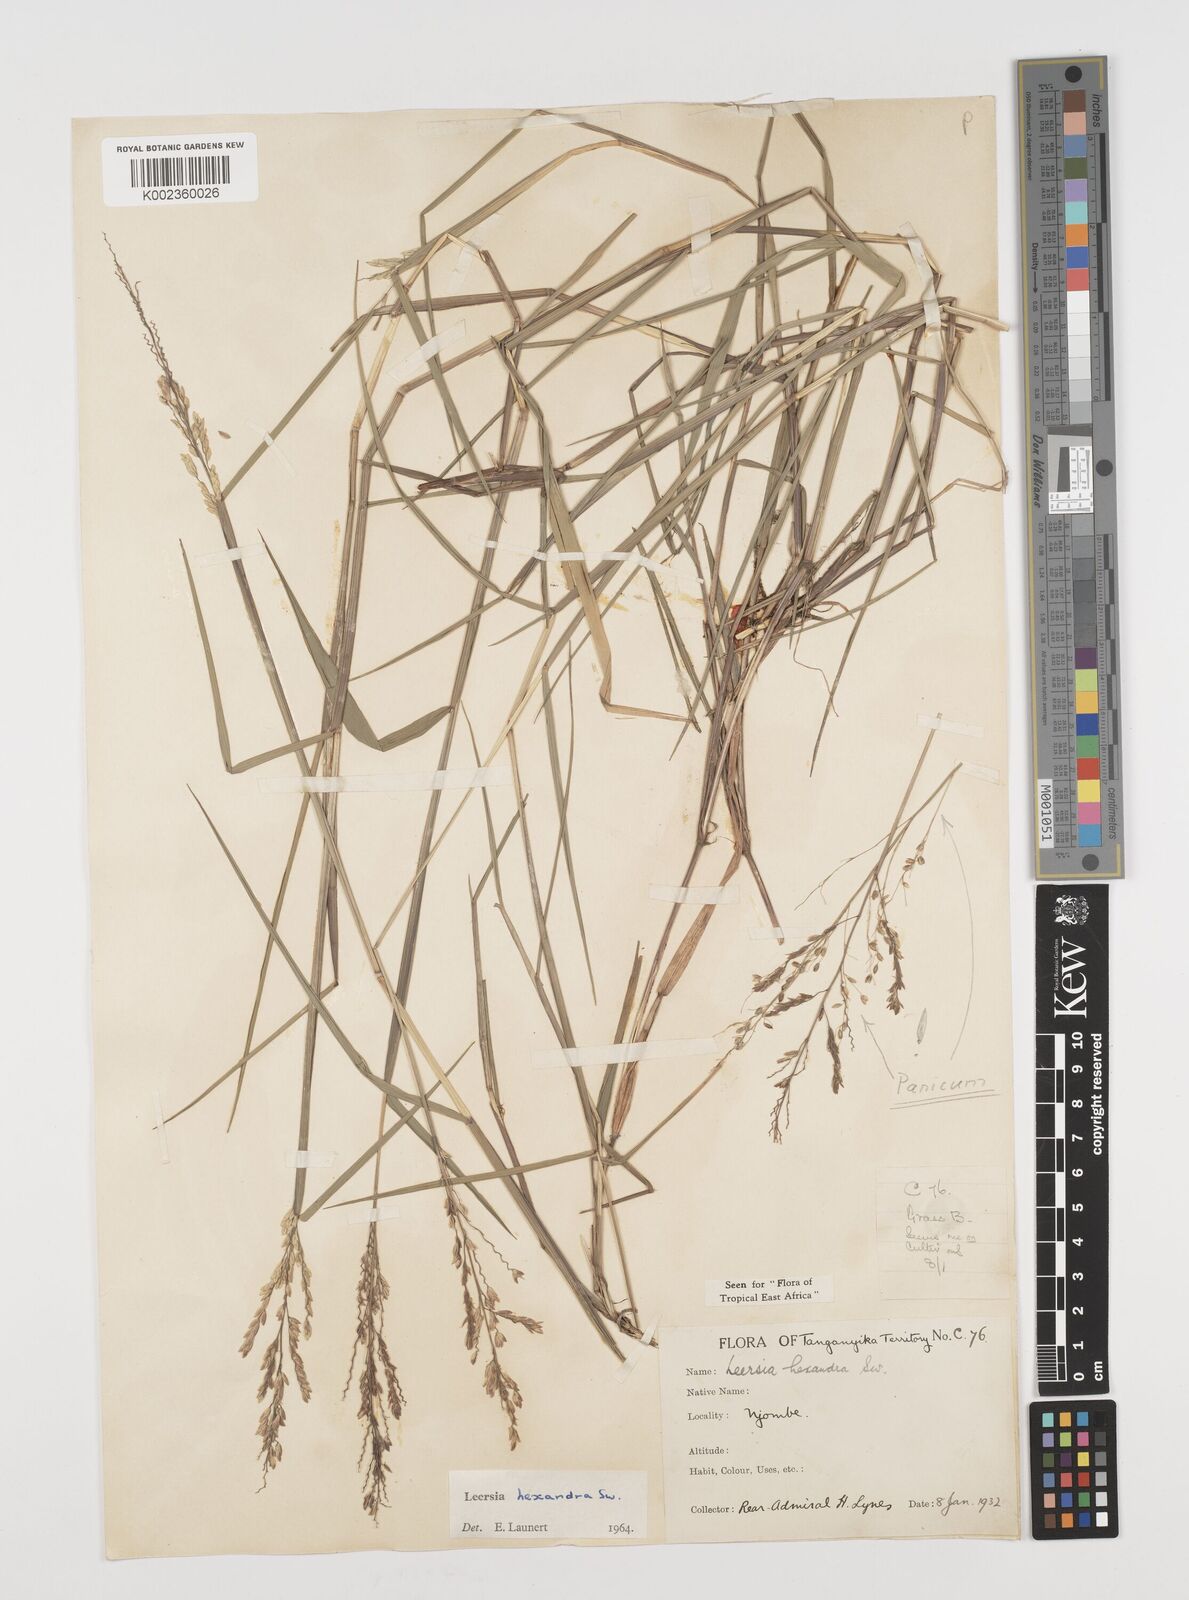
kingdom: Plantae
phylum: Tracheophyta
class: Liliopsida
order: Poales
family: Poaceae
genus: Leersia
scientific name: Leersia hexandra
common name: Southern cut grass
